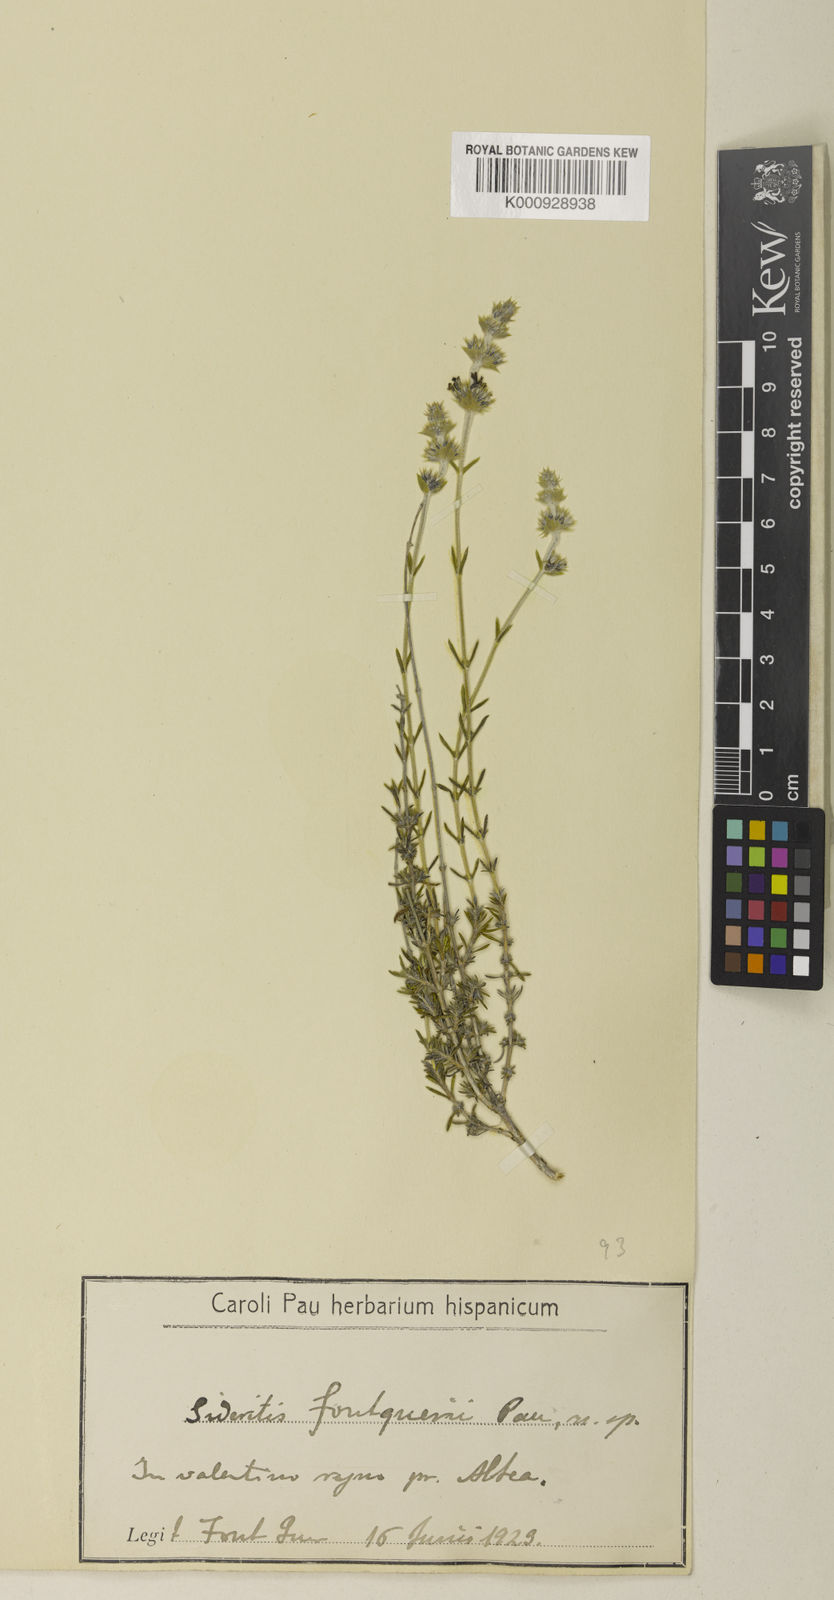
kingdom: Plantae
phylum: Tracheophyta
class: Magnoliopsida
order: Lamiales
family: Lamiaceae
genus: Sideritis
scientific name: Sideritis fontqueri
